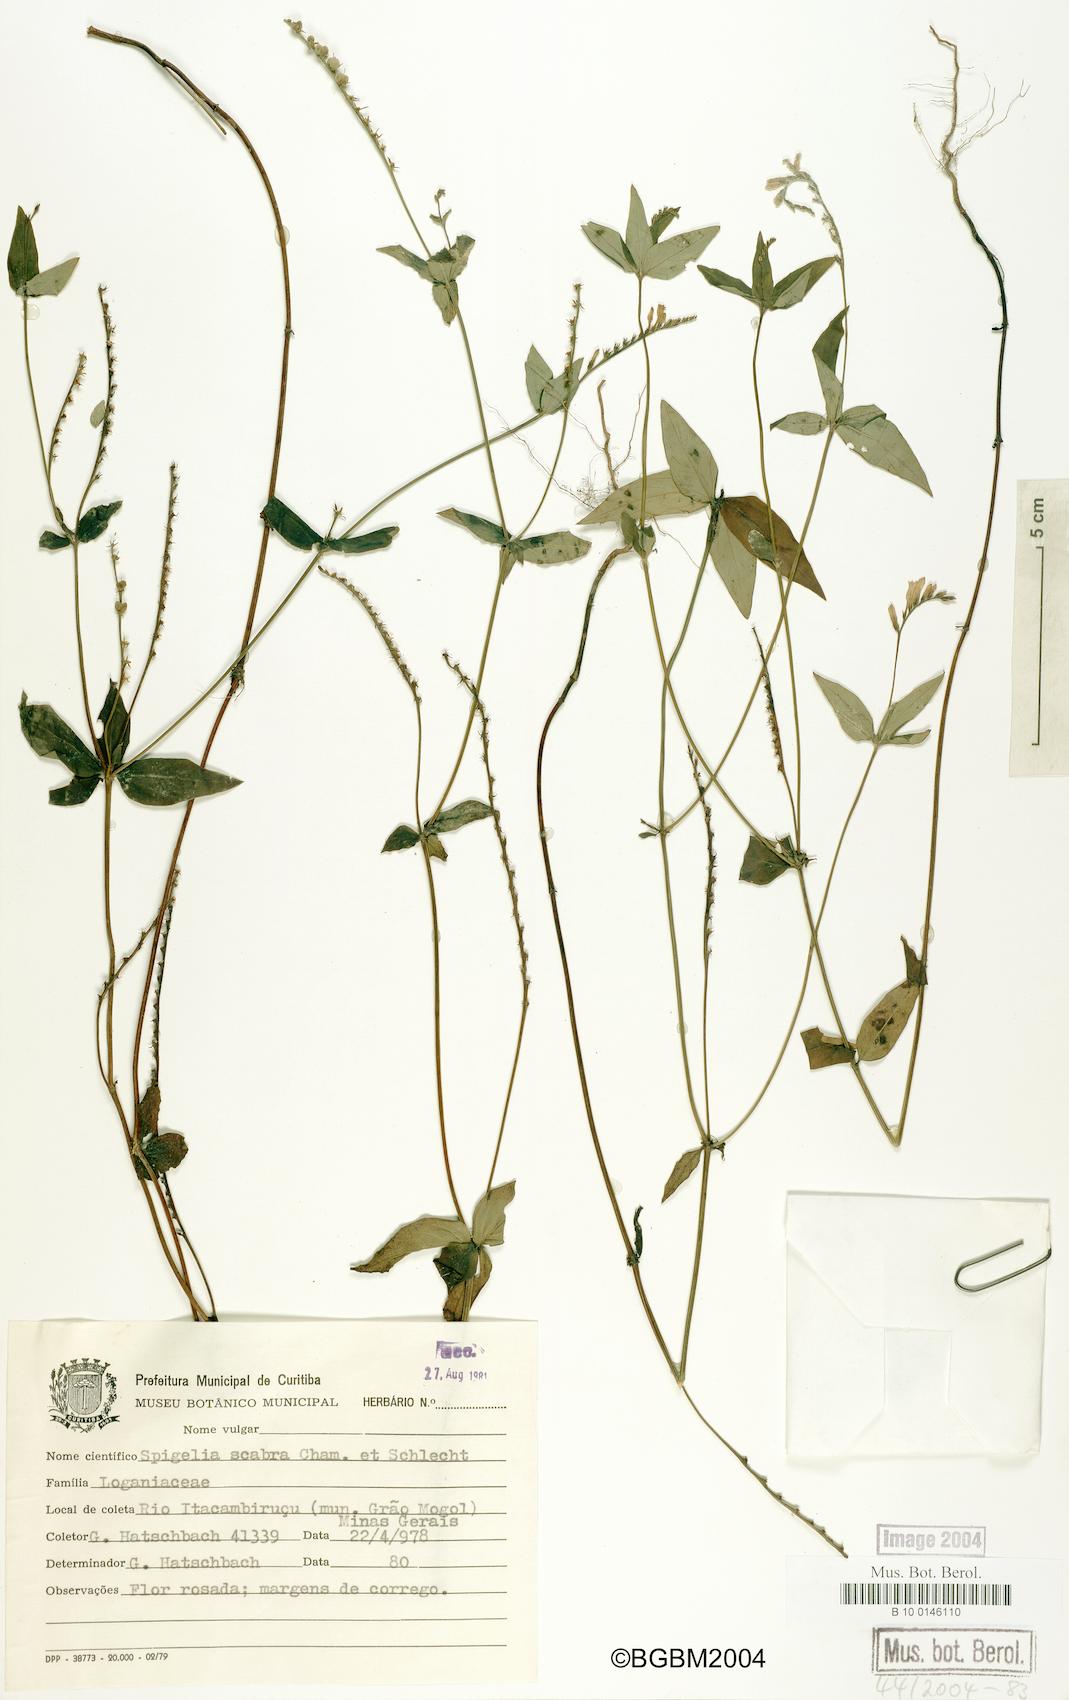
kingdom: Plantae
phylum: Tracheophyta
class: Magnoliopsida
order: Gentianales
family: Loganiaceae
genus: Spigelia
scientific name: Spigelia humboldtiana
